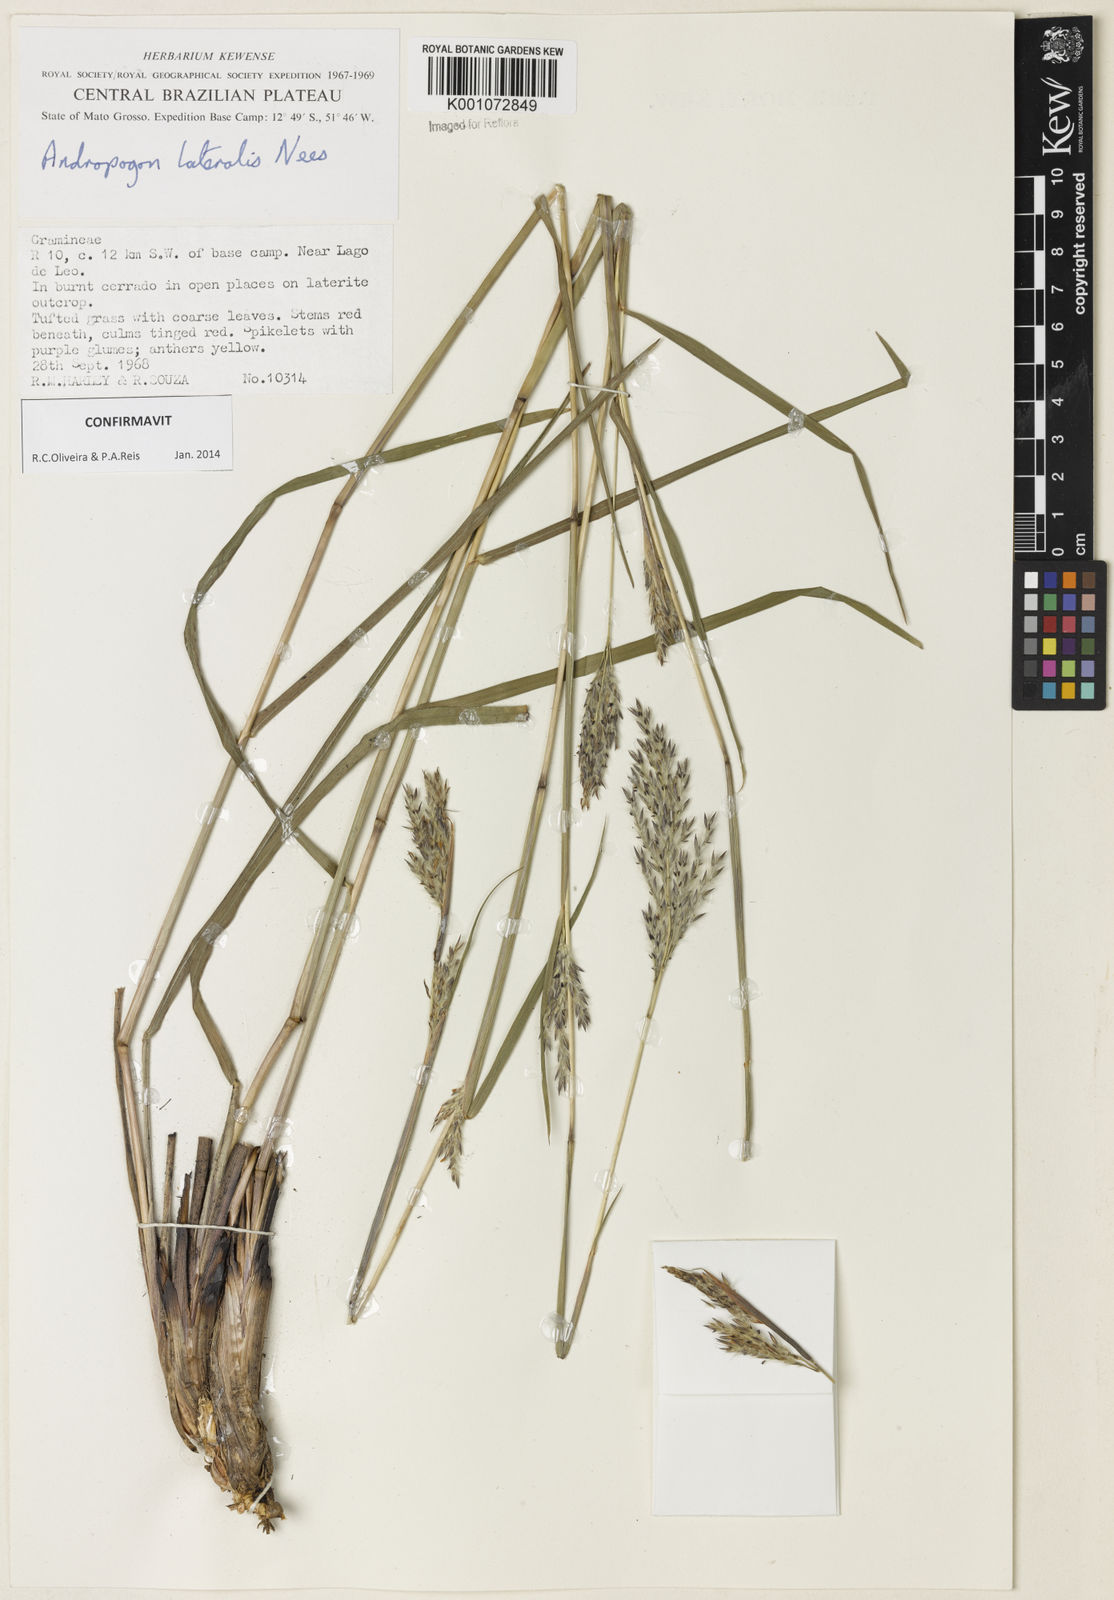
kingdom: Plantae
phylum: Tracheophyta
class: Liliopsida
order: Poales
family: Poaceae
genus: Andropogon
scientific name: Andropogon lateralis
